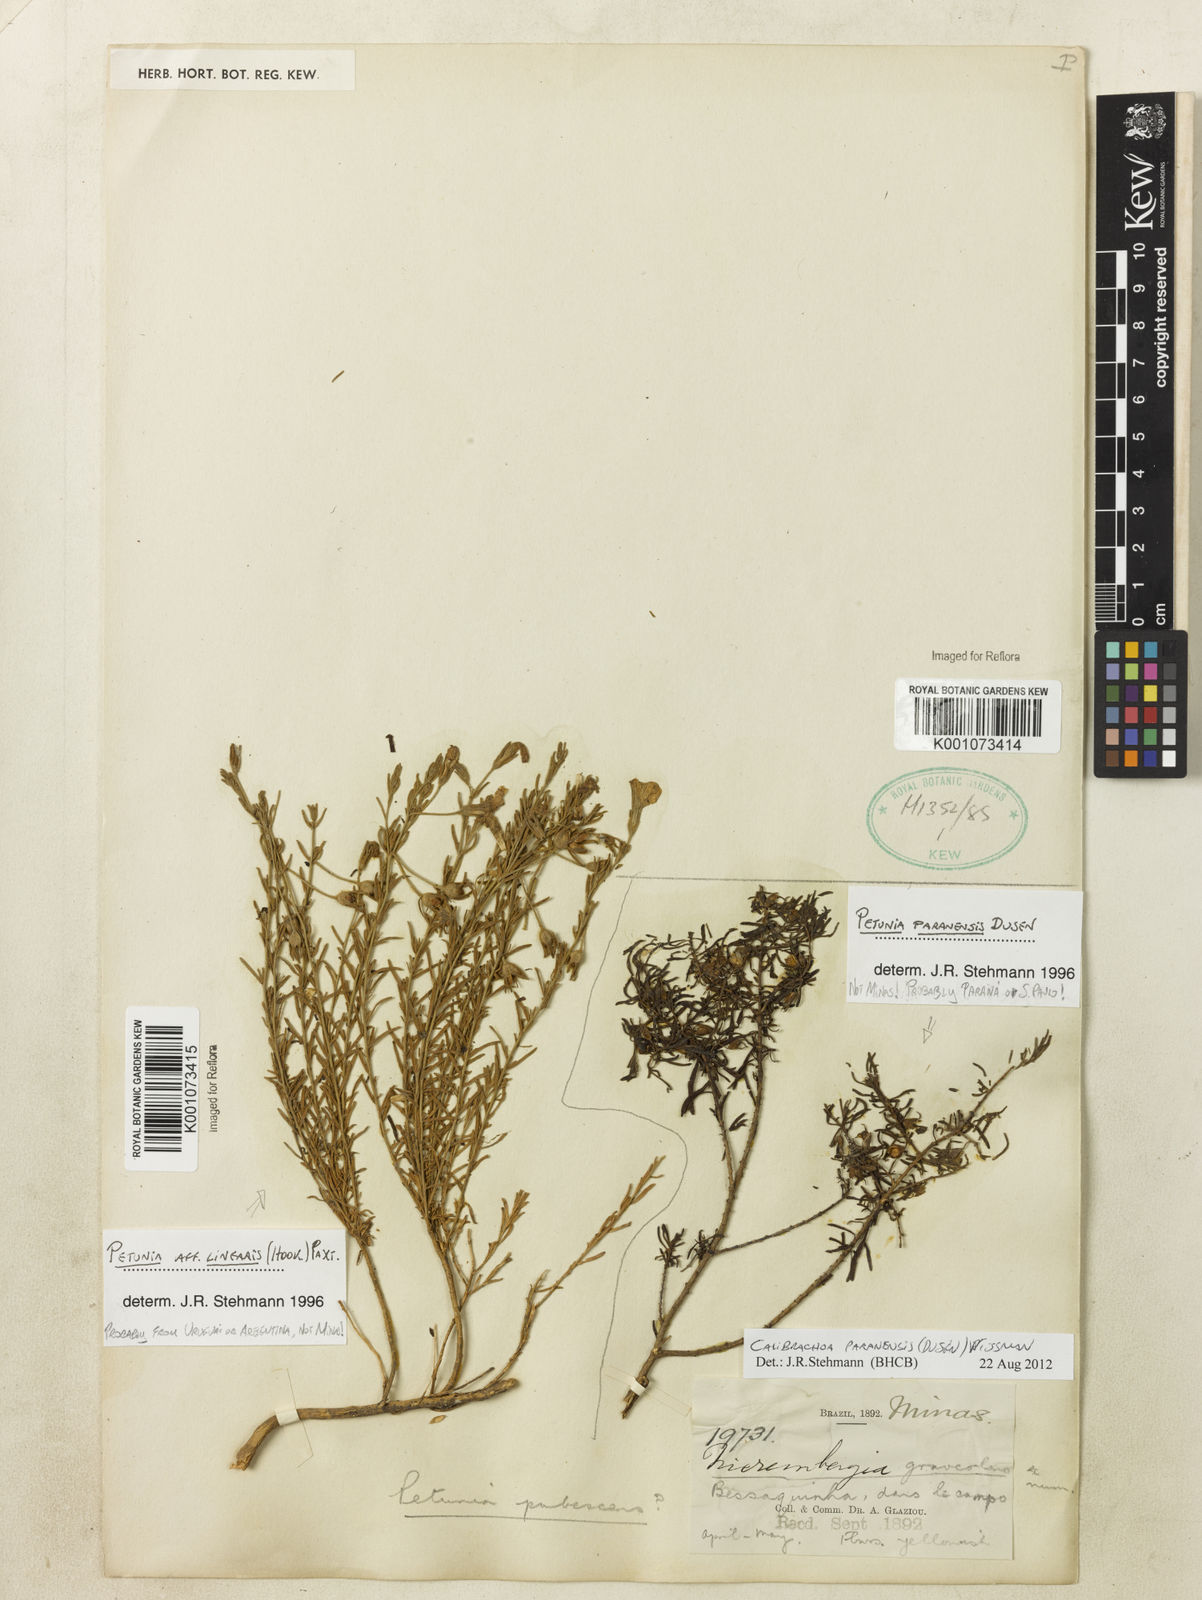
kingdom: Plantae
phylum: Tracheophyta
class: Magnoliopsida
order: Solanales
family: Solanaceae
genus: Calibrachoa
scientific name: Calibrachoa
